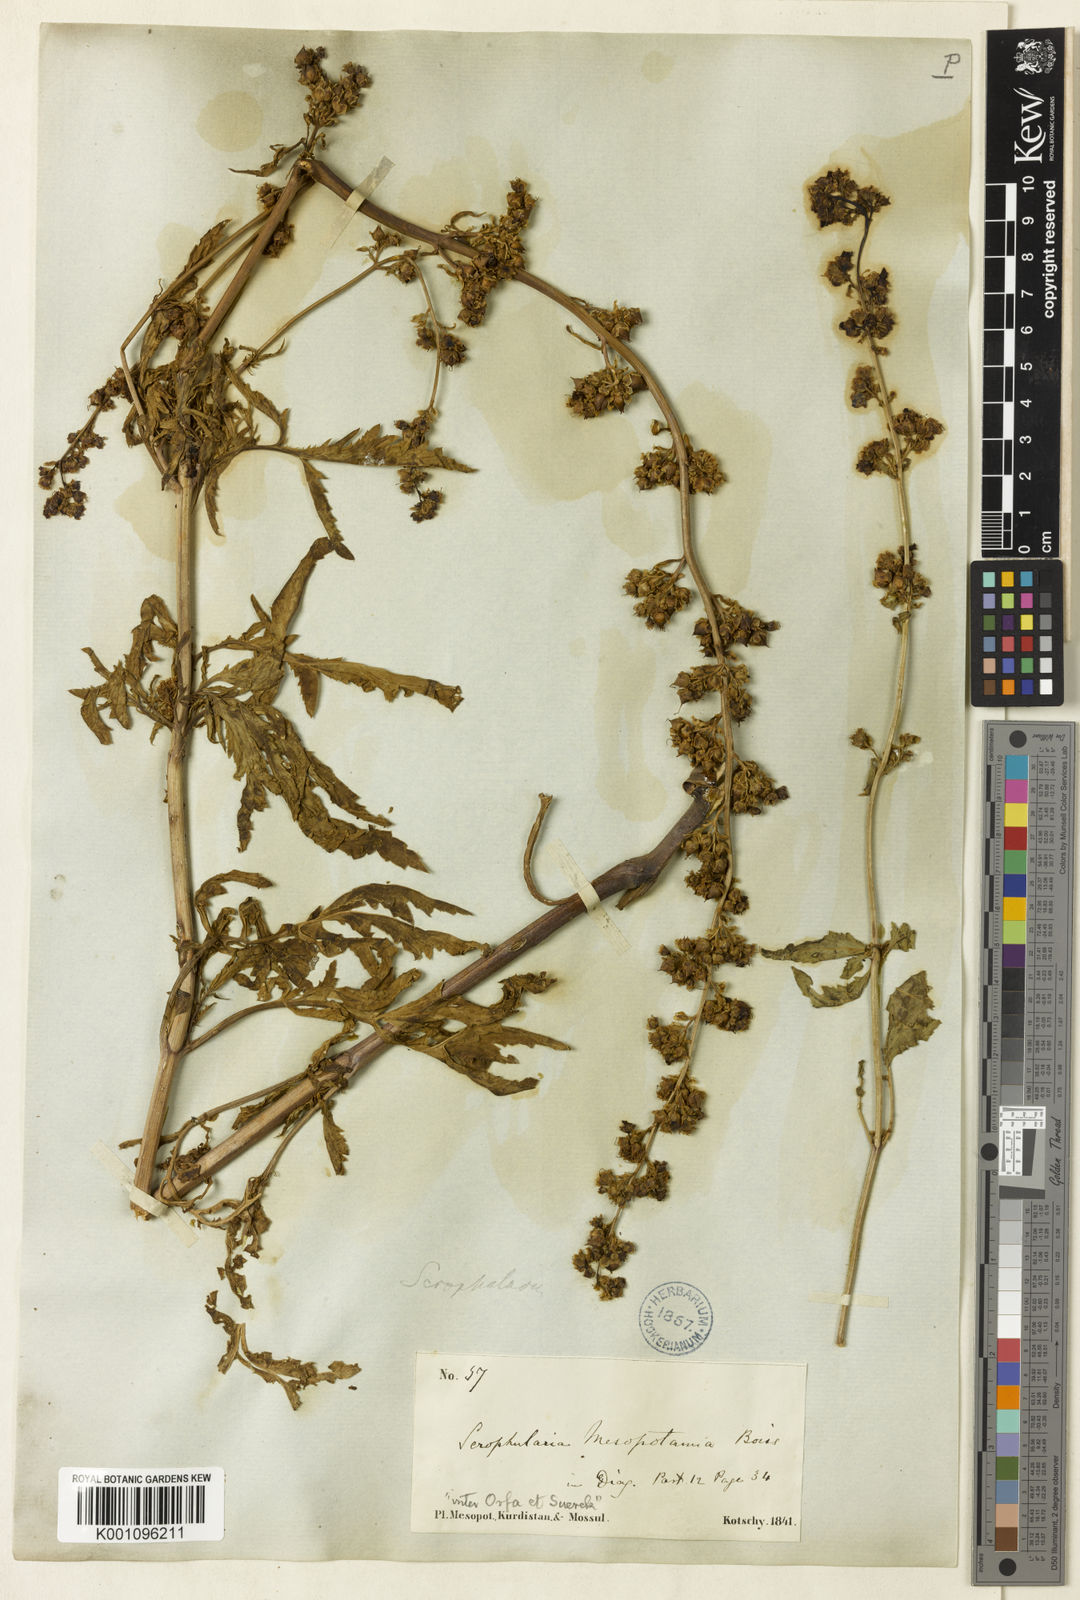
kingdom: Plantae
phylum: Tracheophyta
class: Magnoliopsida
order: Lamiales
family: Scrophulariaceae
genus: Scrophularia
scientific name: Scrophularia mesopotamica
